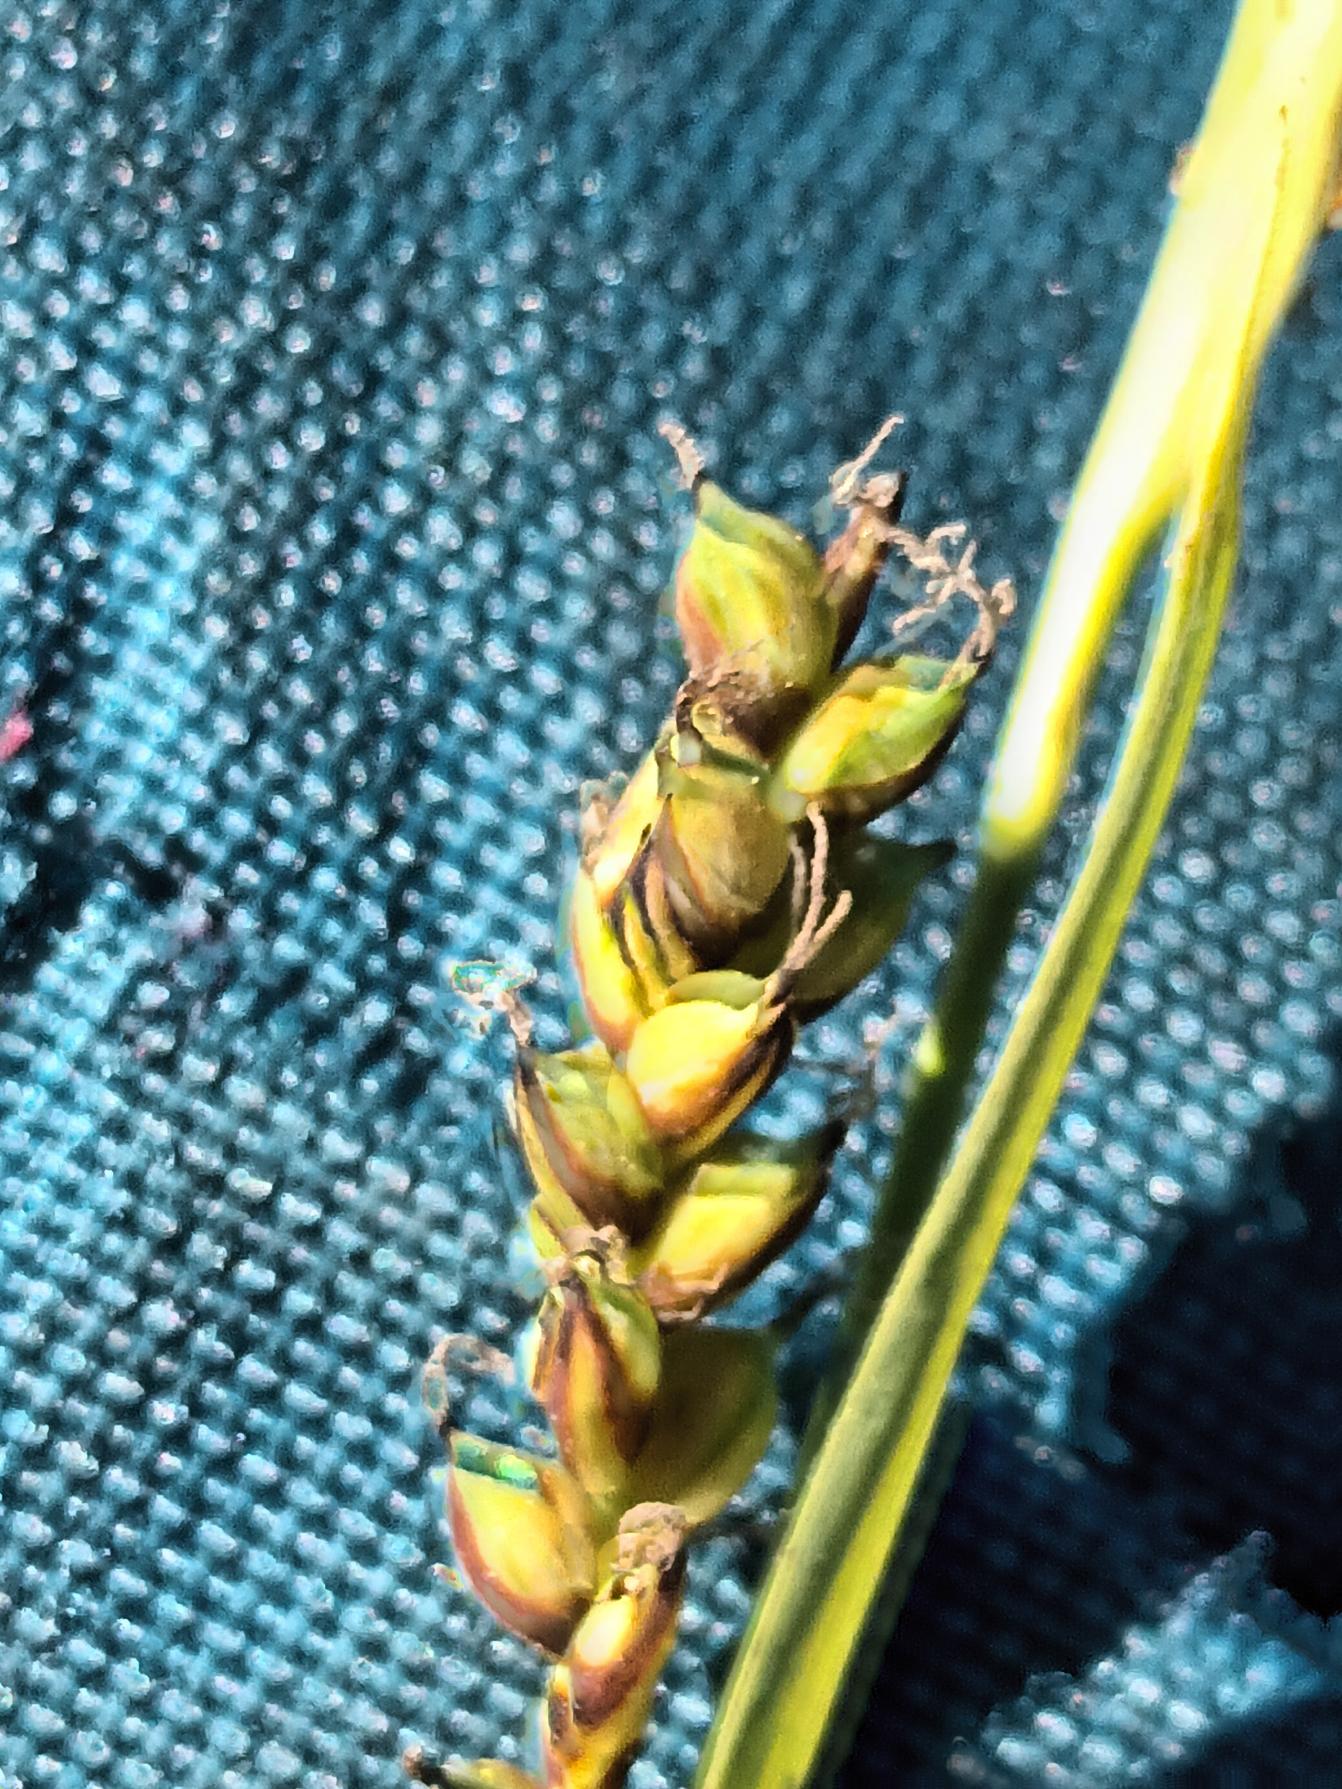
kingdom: Plantae
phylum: Tracheophyta
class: Liliopsida
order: Poales
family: Cyperaceae
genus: Carex
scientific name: Carex panicea
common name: Hirse-star
